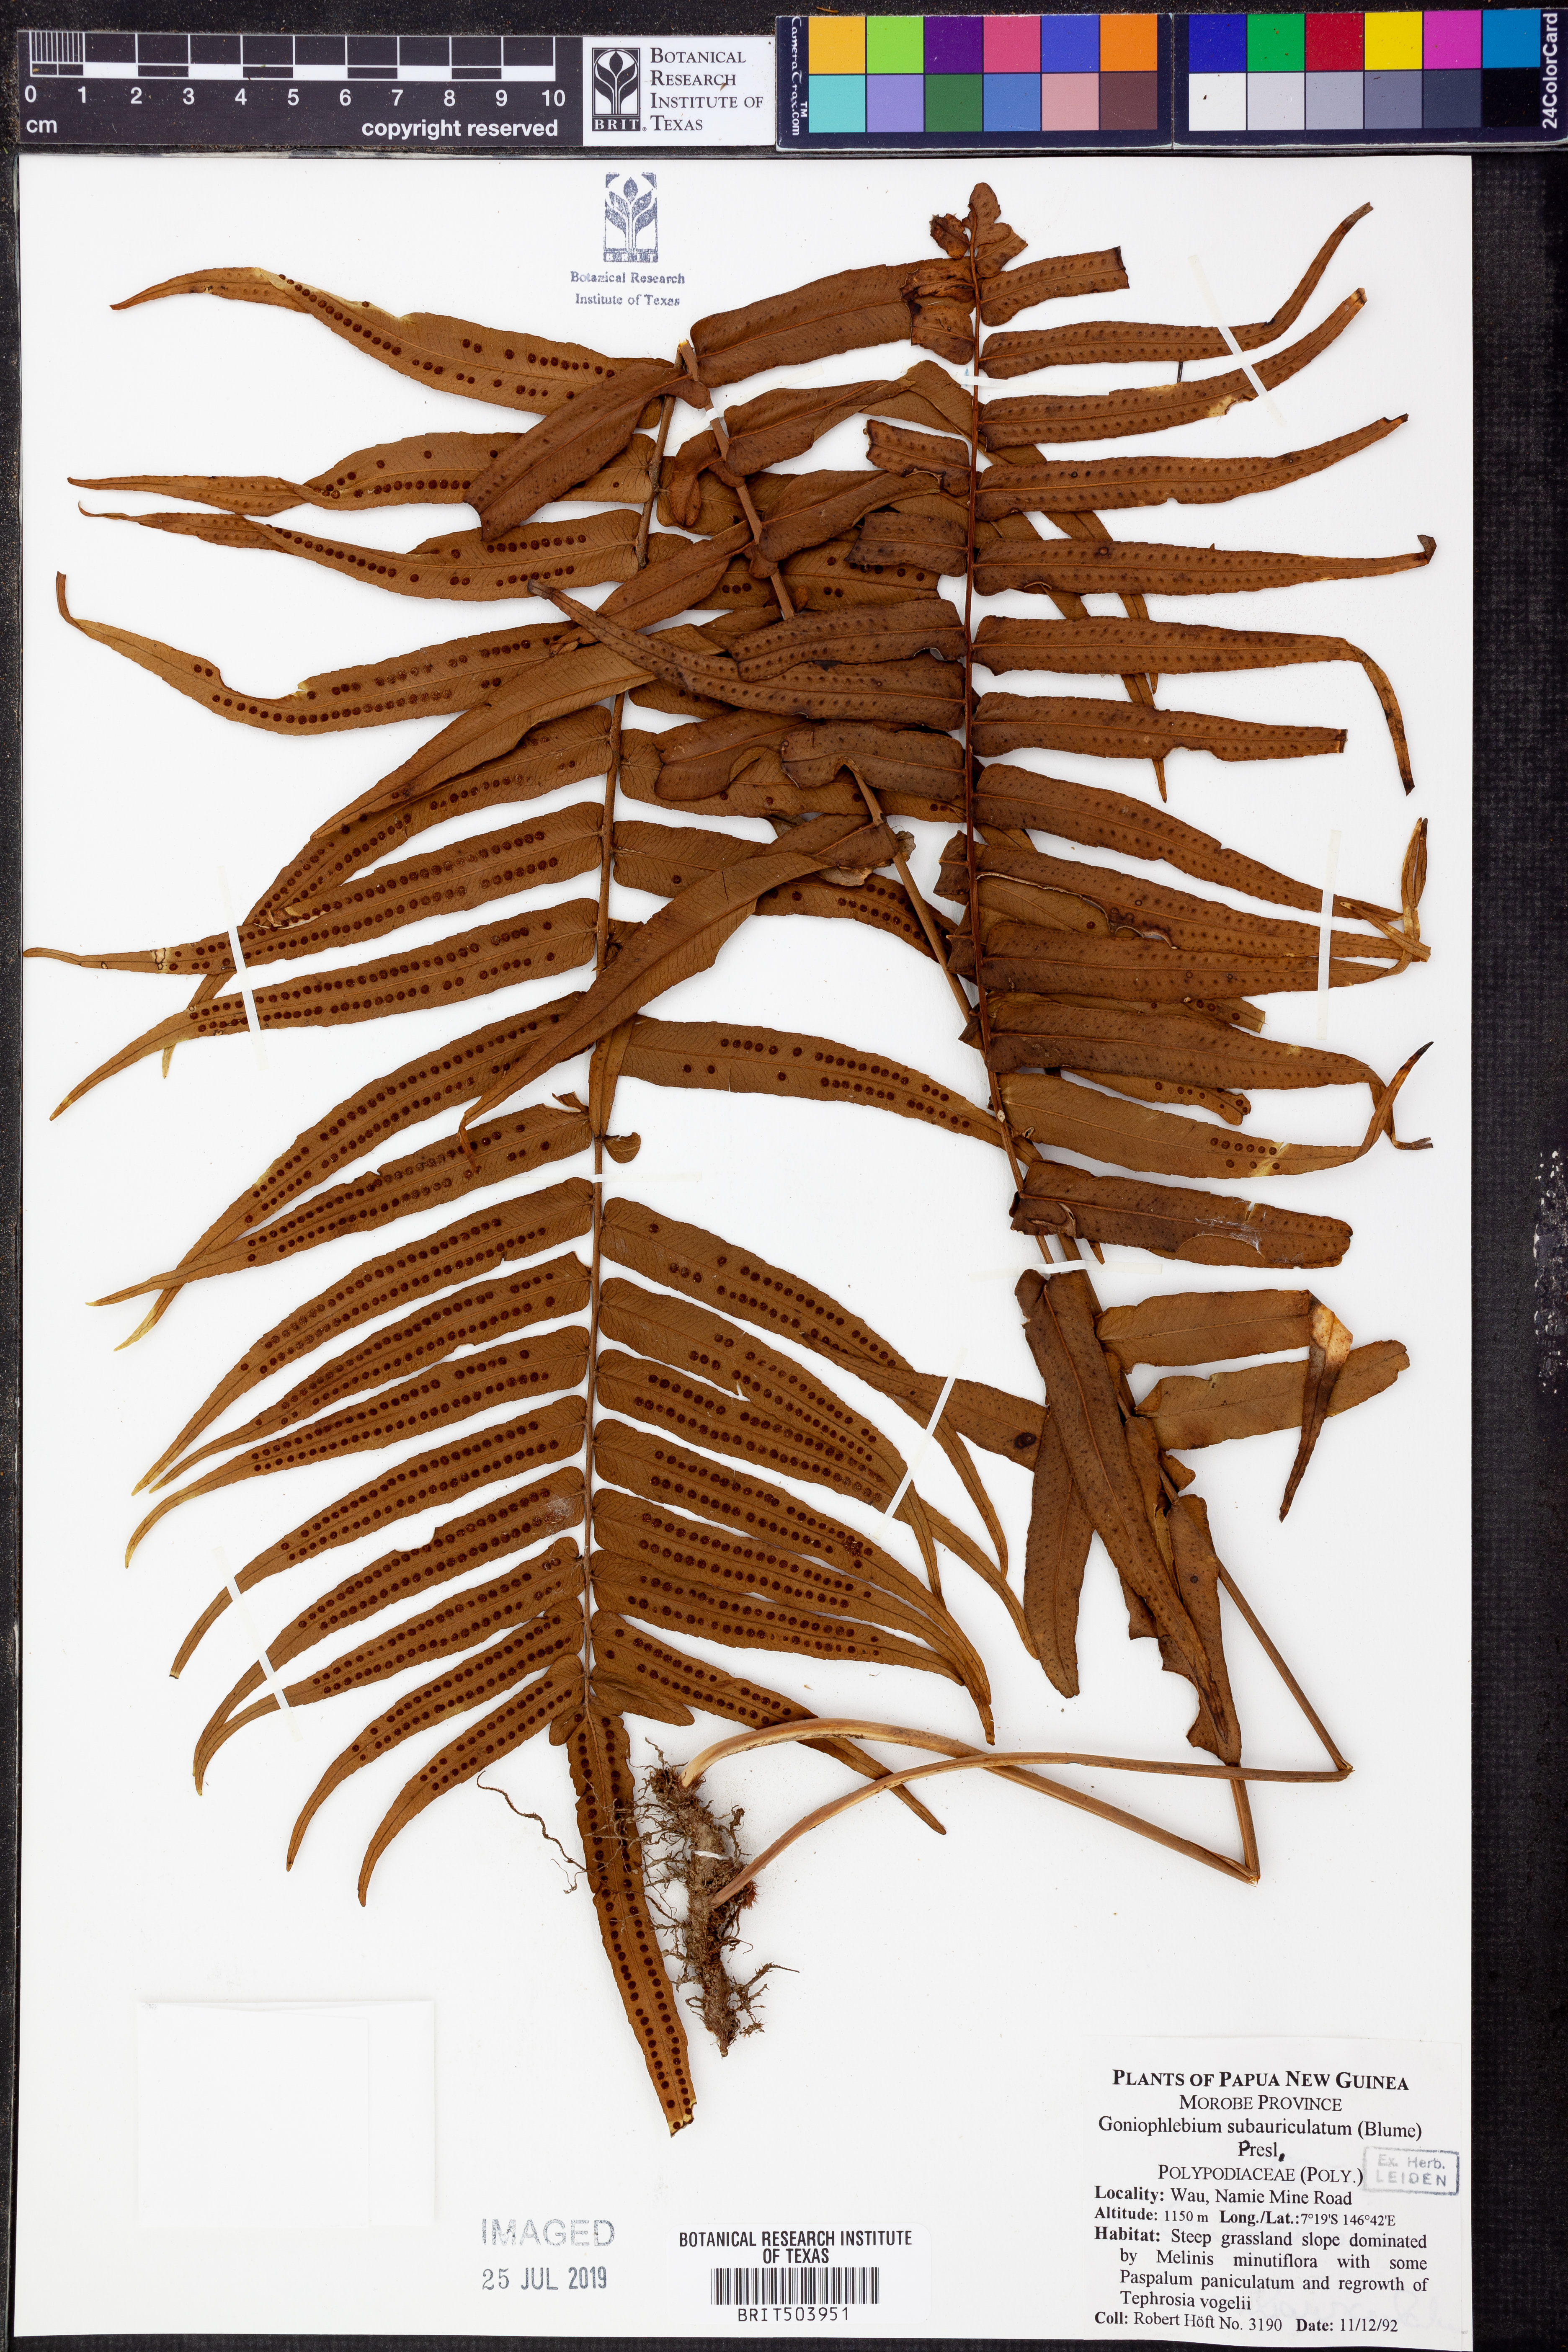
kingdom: Plantae
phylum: Tracheophyta
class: Polypodiopsida
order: Polypodiales
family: Polypodiaceae
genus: Goniophlebium
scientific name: Goniophlebium subauriculatum
